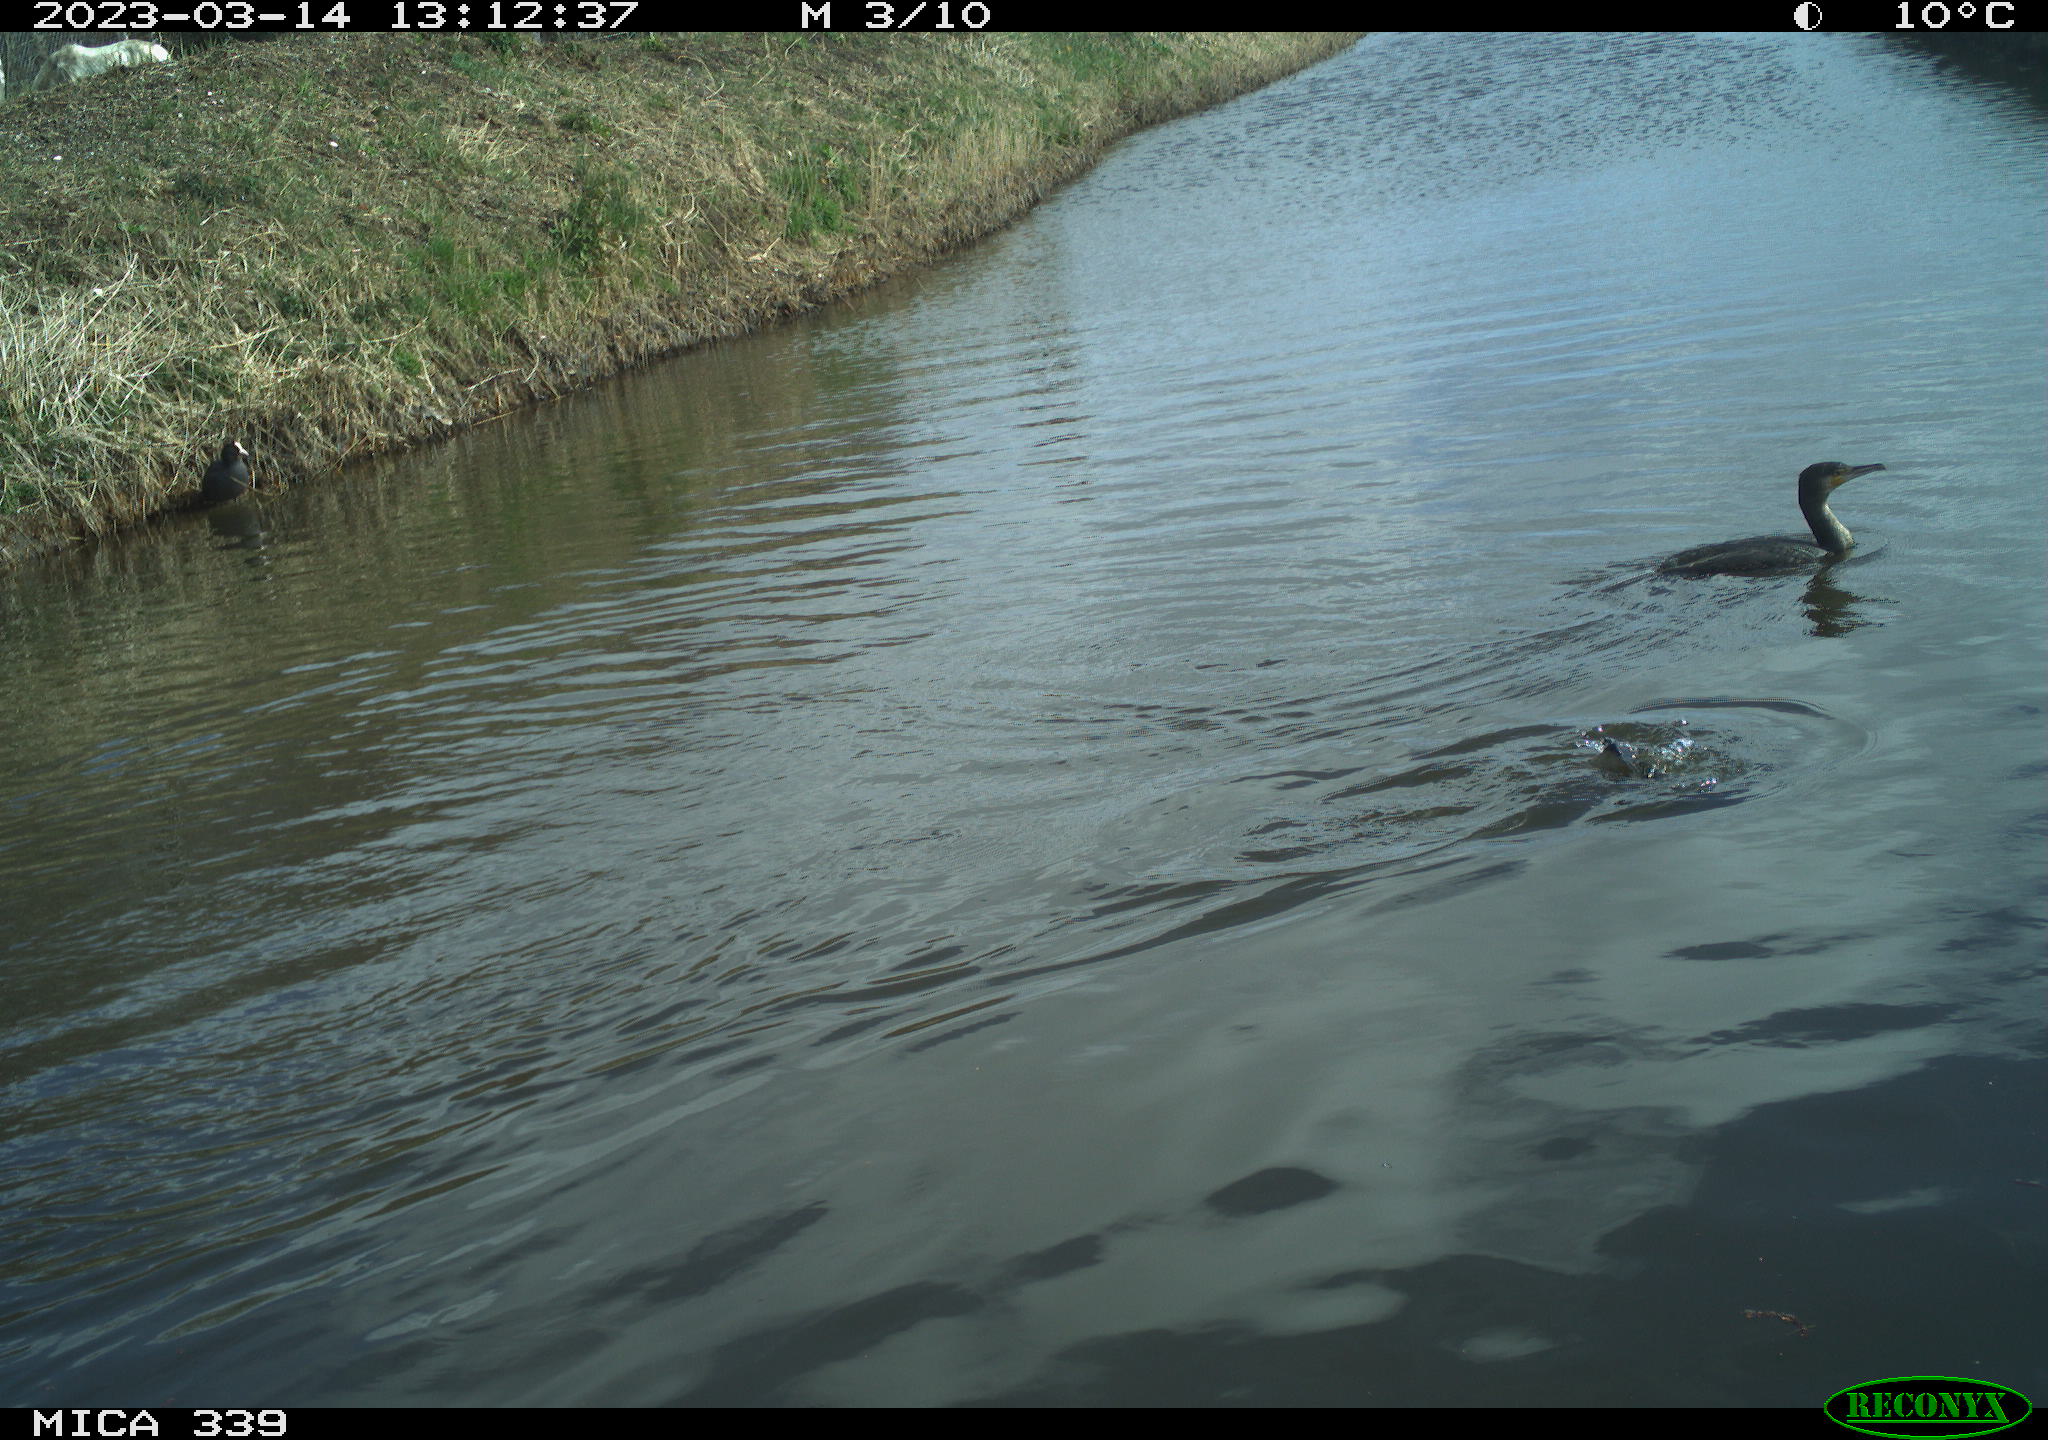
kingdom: Animalia
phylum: Chordata
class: Aves
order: Gruiformes
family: Rallidae
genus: Fulica
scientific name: Fulica atra
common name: Eurasian coot
